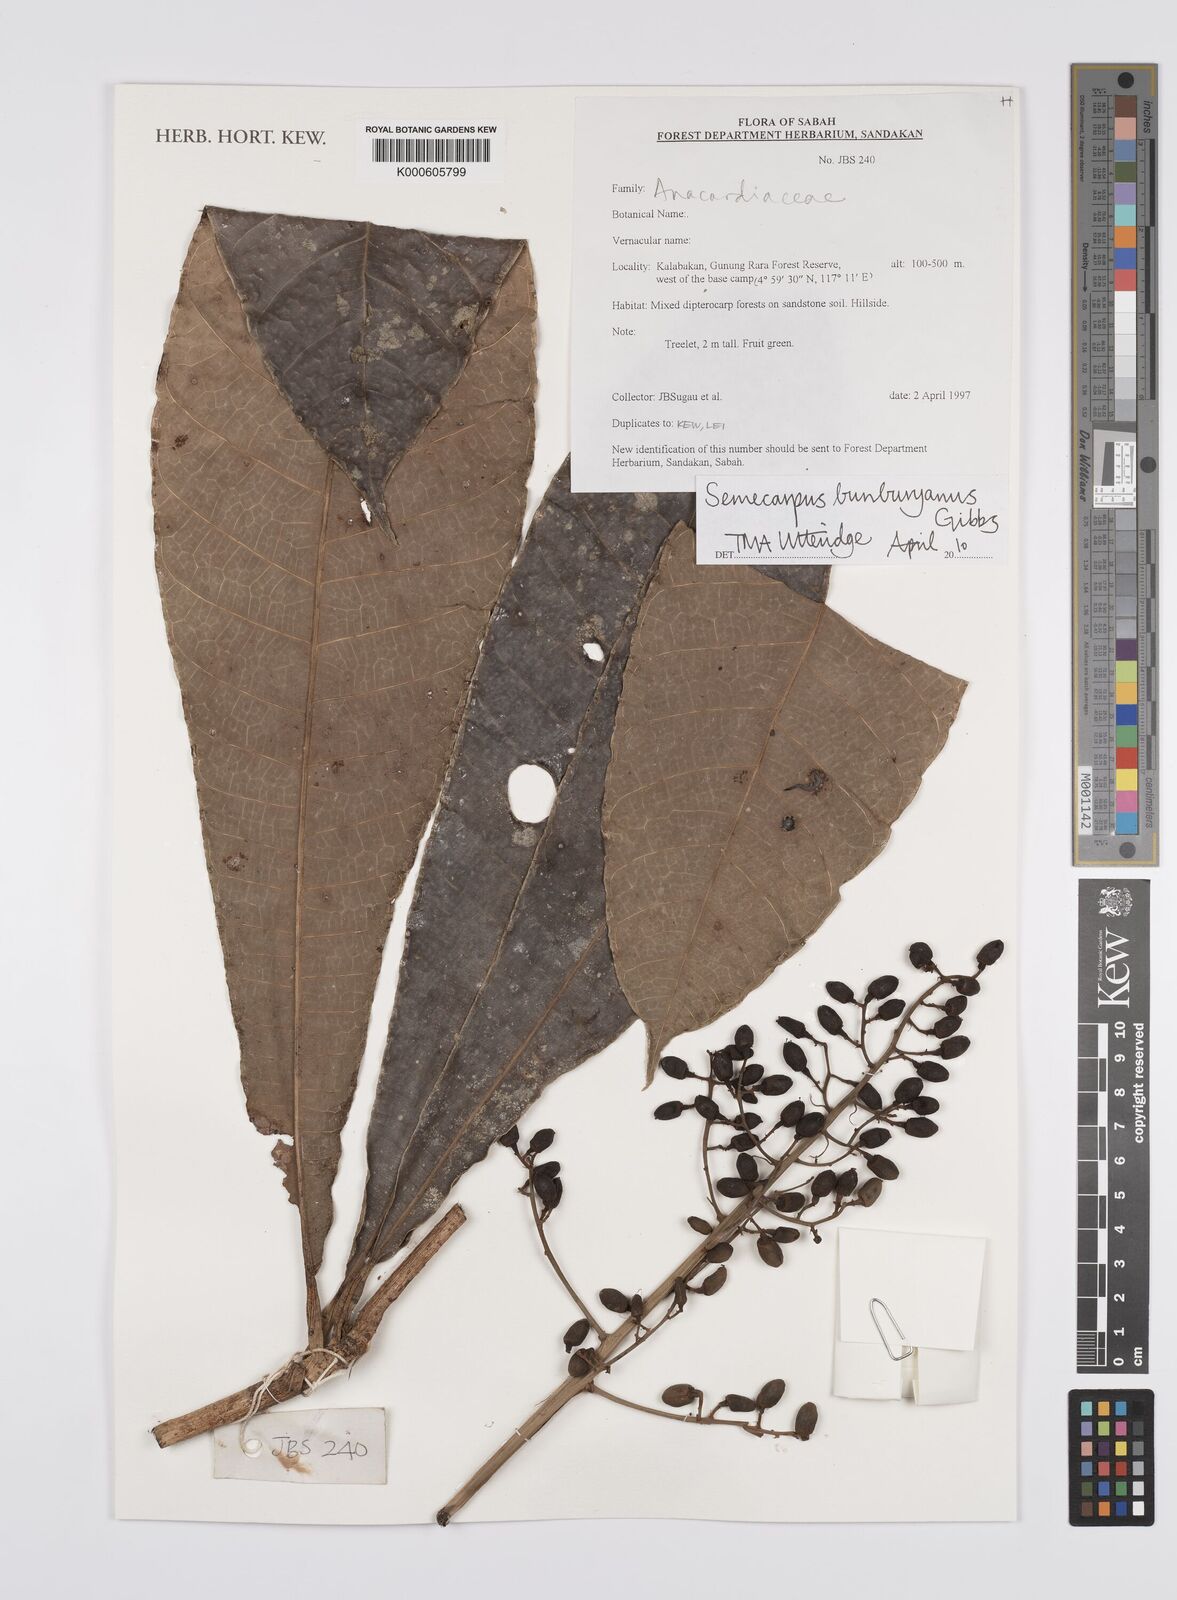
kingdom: Plantae
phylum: Tracheophyta
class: Magnoliopsida
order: Sapindales
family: Anacardiaceae
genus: Semecarpus
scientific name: Semecarpus bunburyanus
